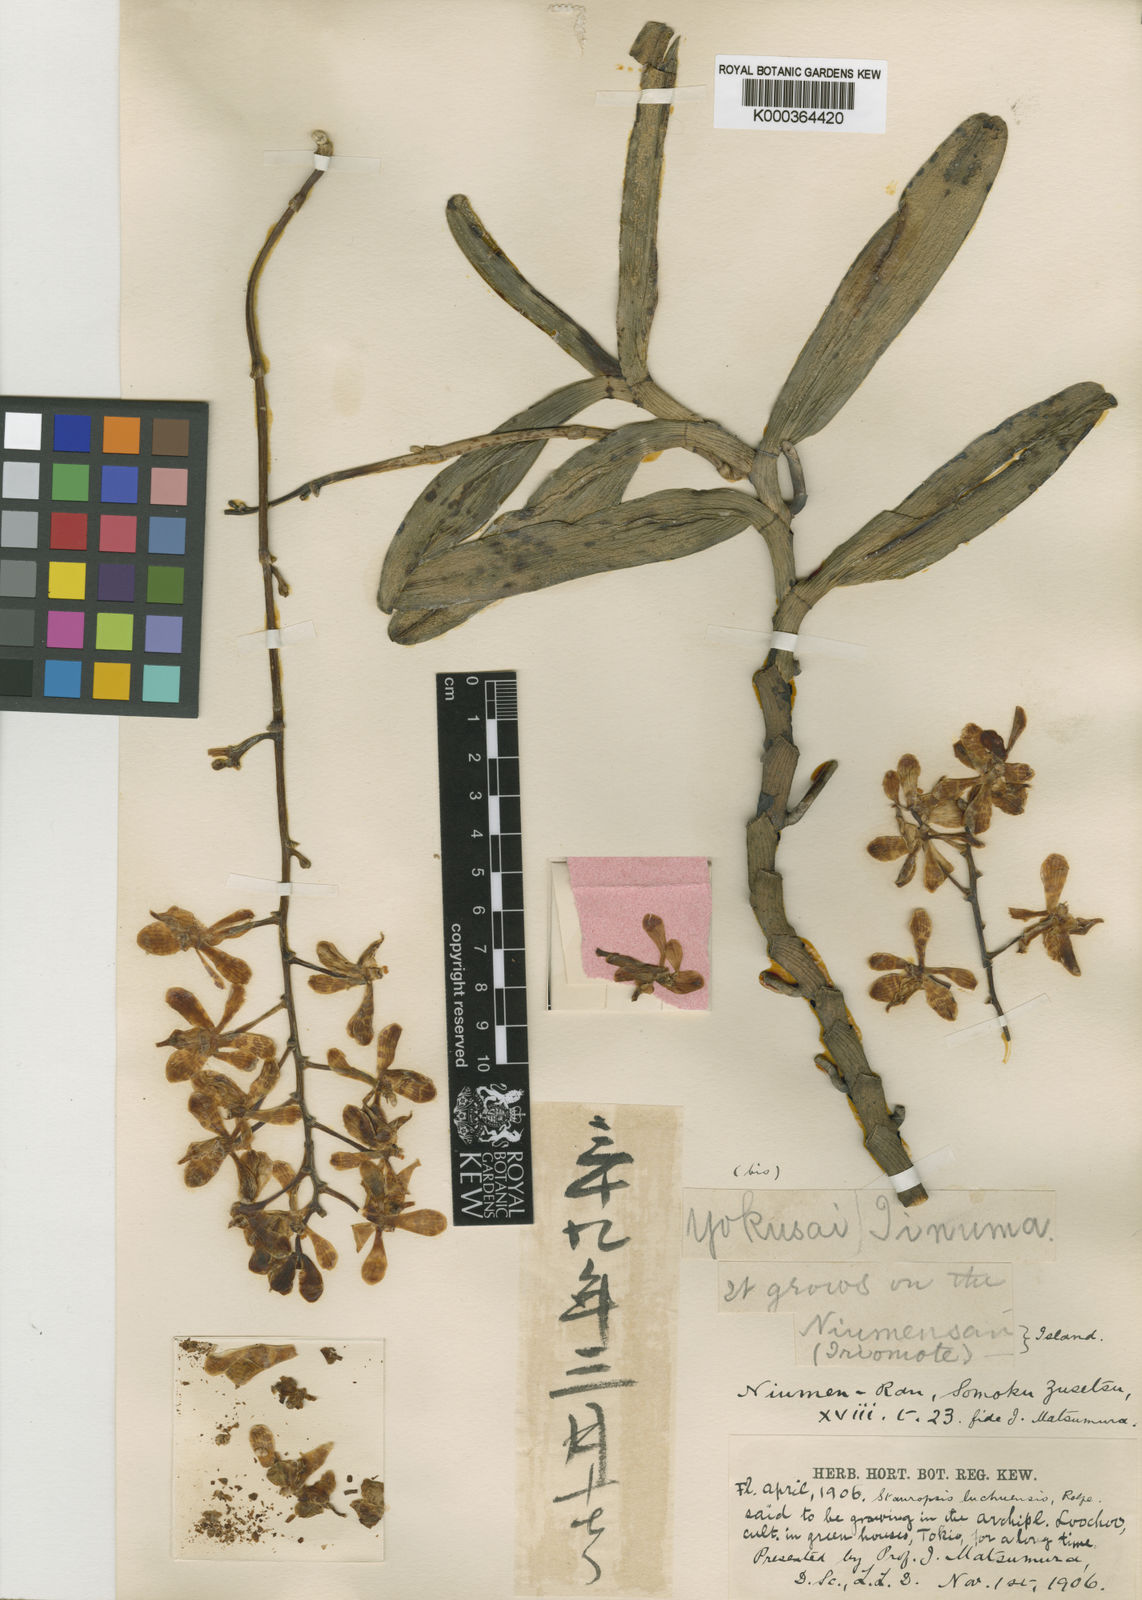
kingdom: Plantae
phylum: Tracheophyta
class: Liliopsida
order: Asparagales
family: Orchidaceae
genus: Trichoglottis
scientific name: Trichoglottis luchuensis
